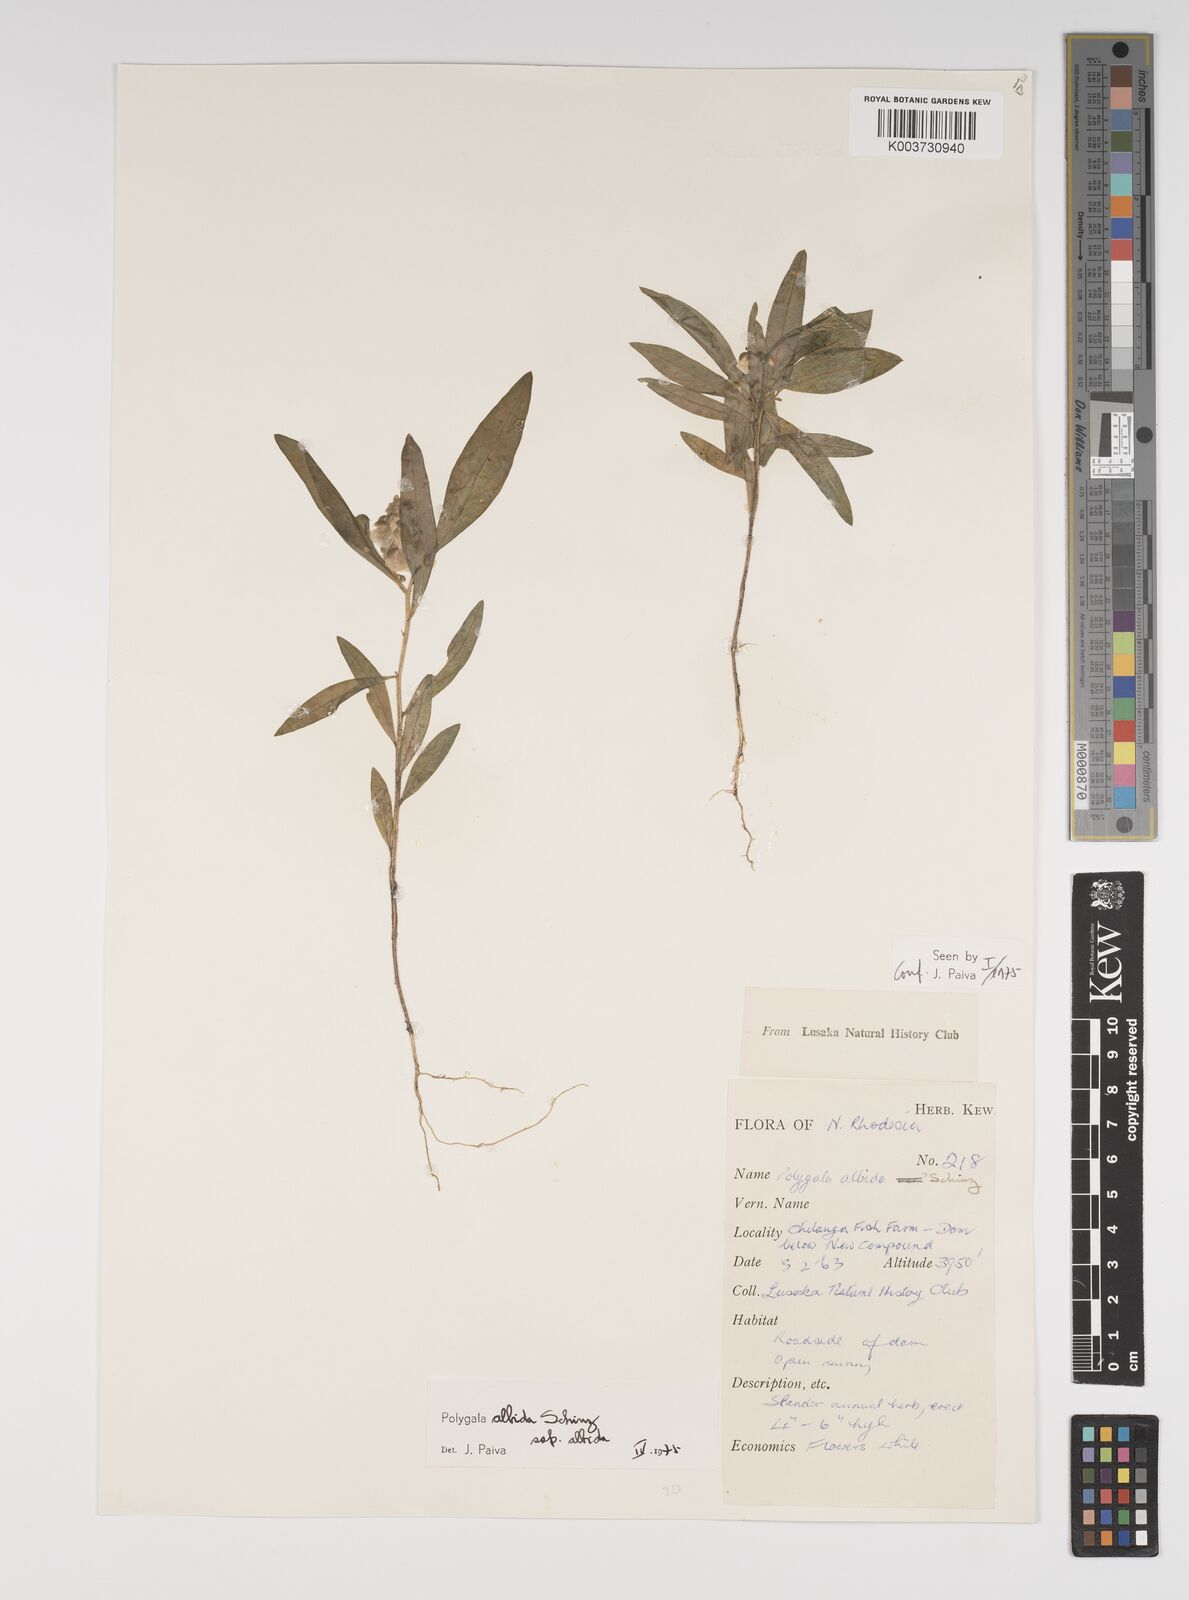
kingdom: Plantae
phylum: Tracheophyta
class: Magnoliopsida
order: Fabales
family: Polygalaceae
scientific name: Polygalaceae
